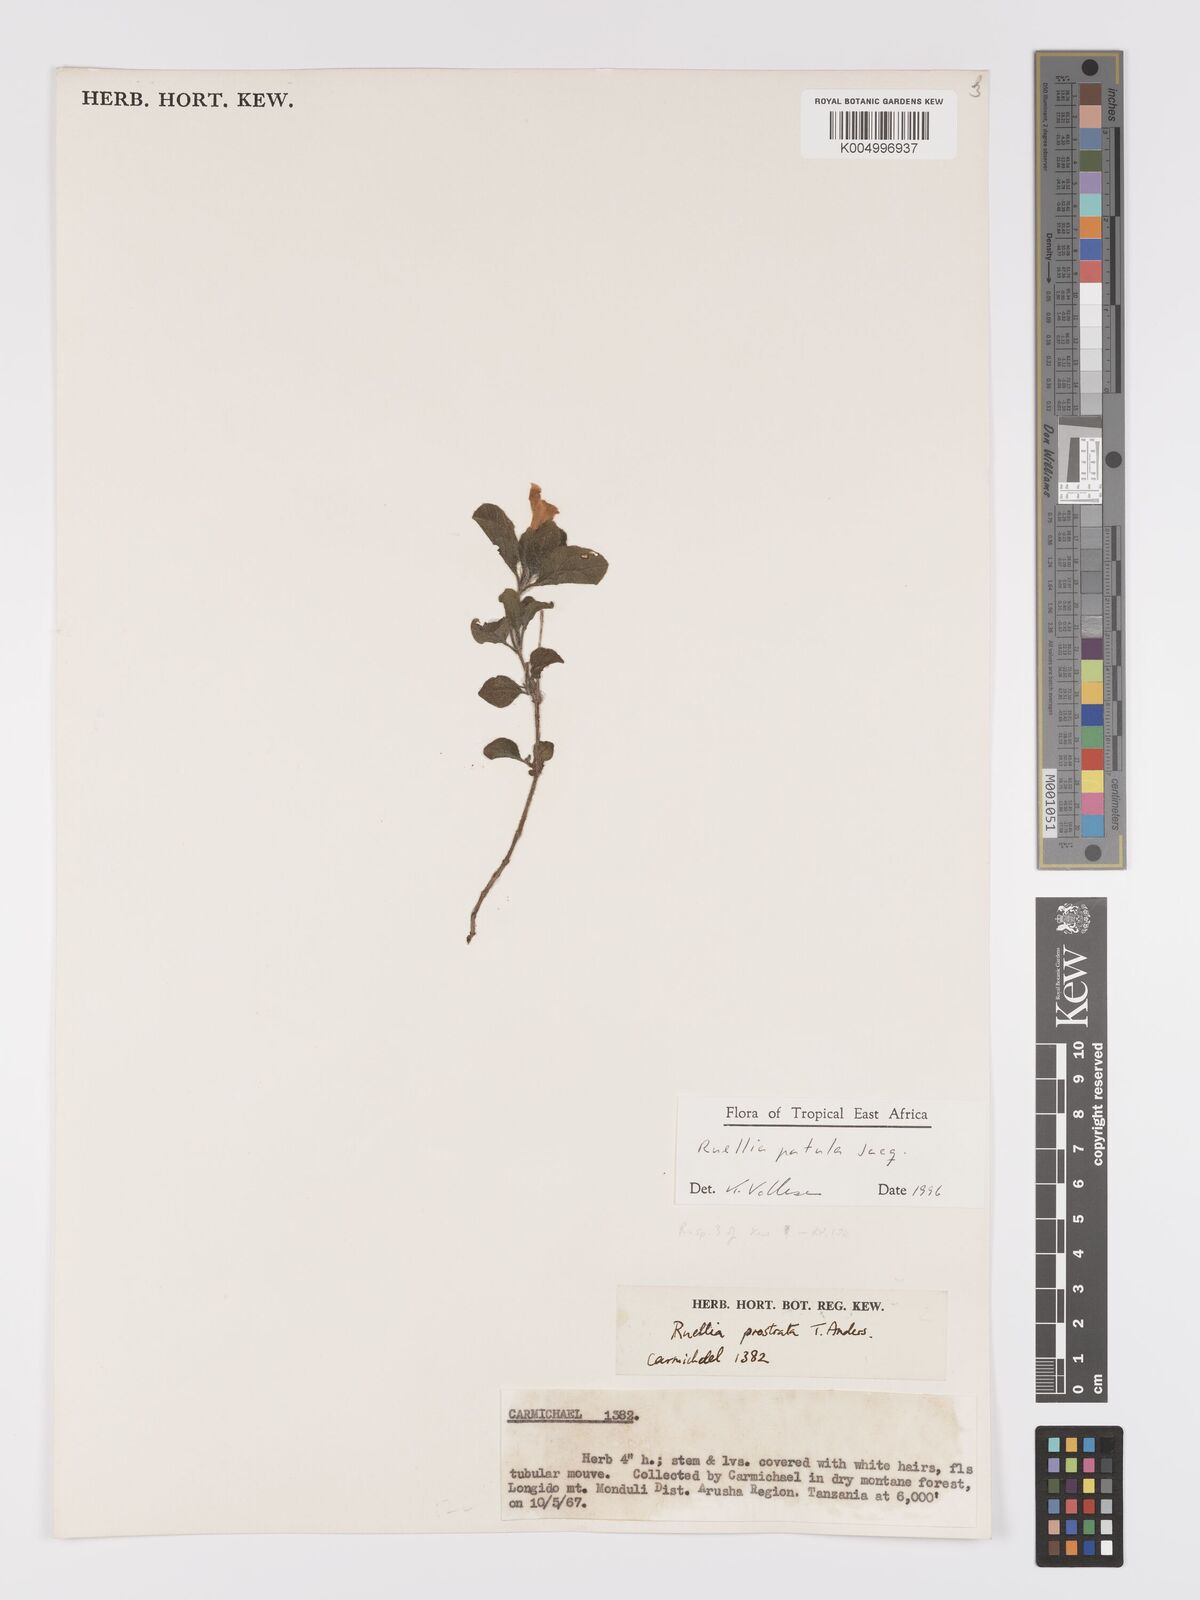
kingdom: Plantae
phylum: Tracheophyta
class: Magnoliopsida
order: Lamiales
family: Acanthaceae
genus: Ruellia
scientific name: Ruellia patula
